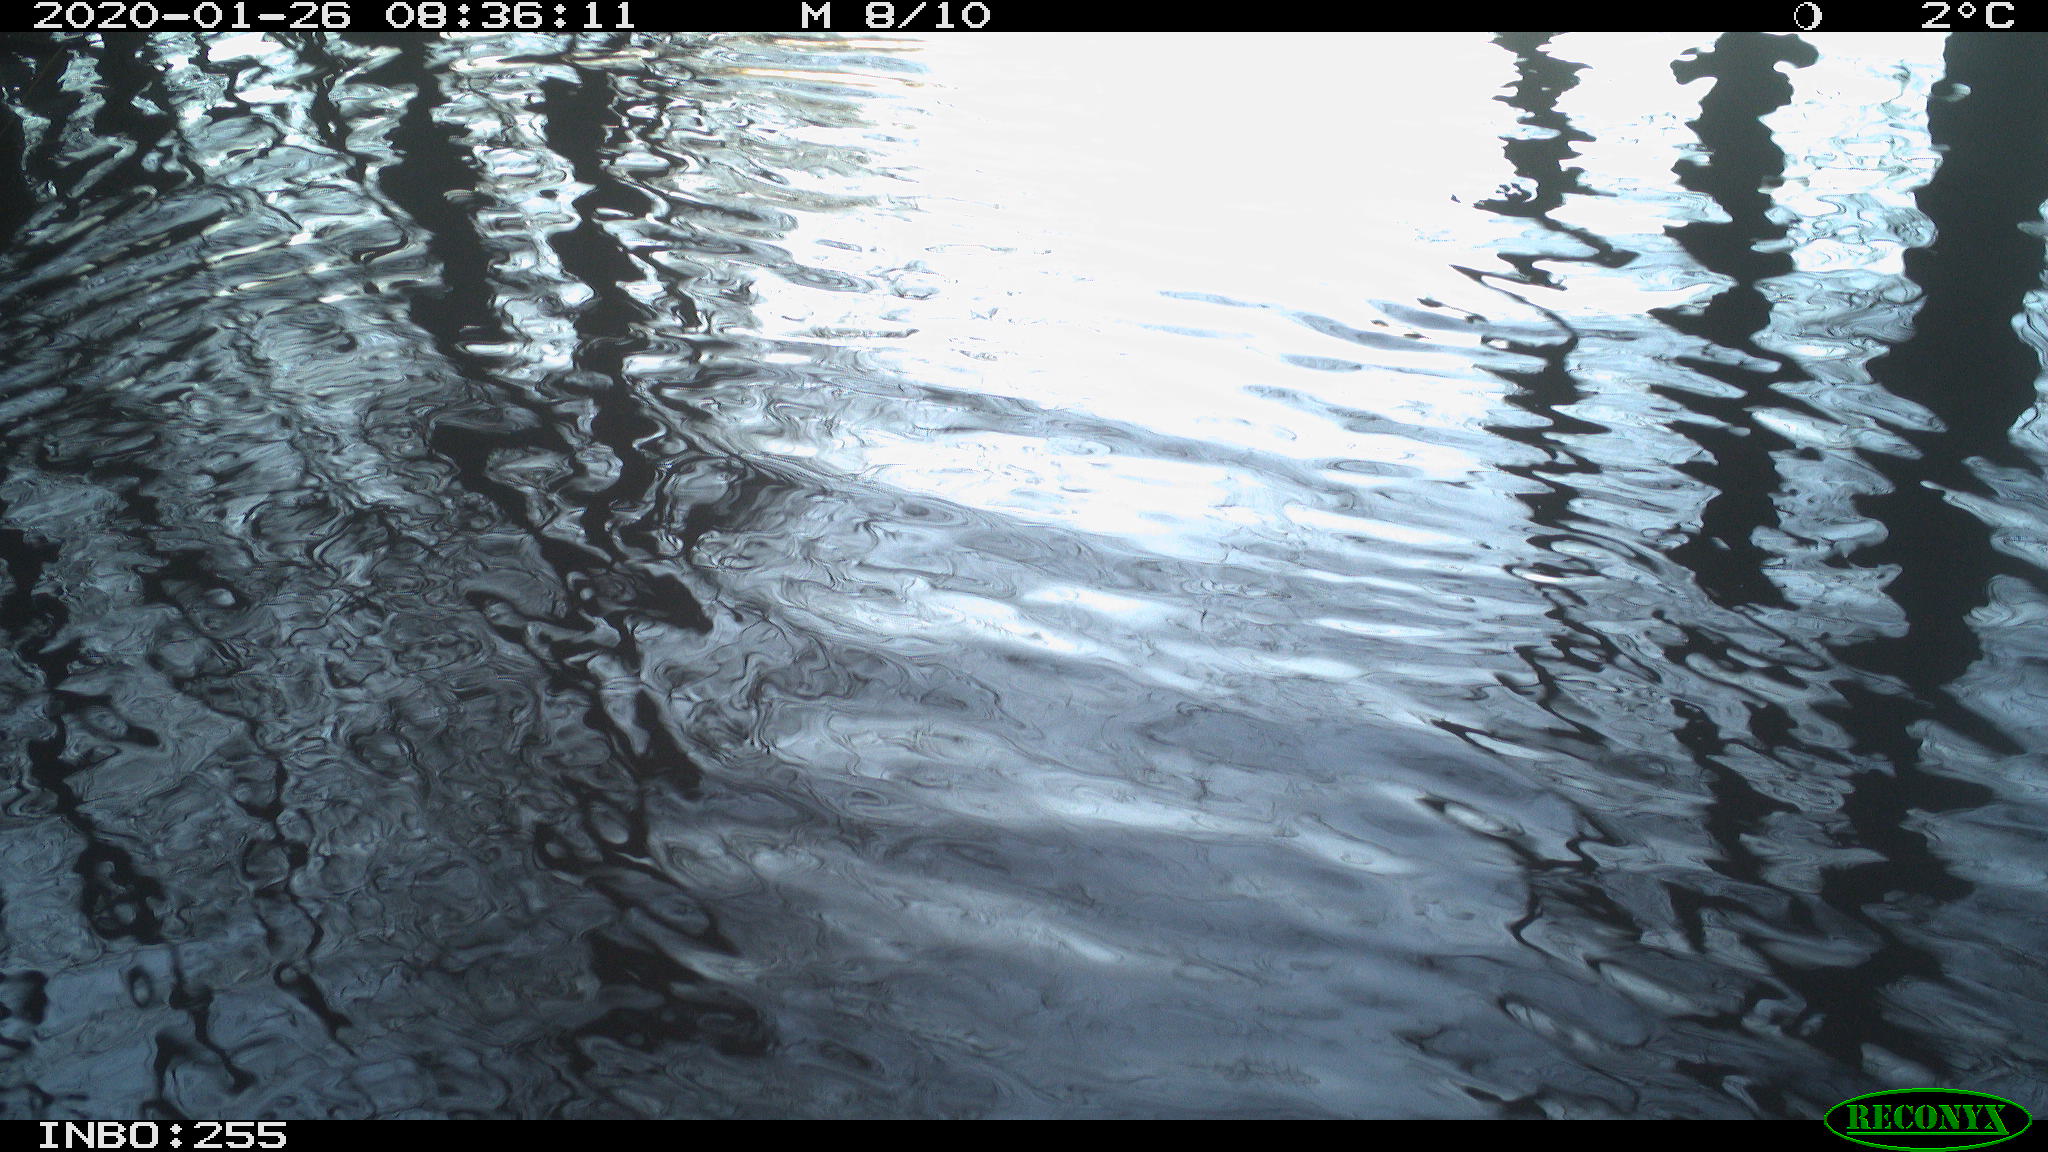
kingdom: Animalia
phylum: Chordata
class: Aves
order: Anseriformes
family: Anatidae
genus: Anas
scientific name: Anas platyrhynchos
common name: Mallard
